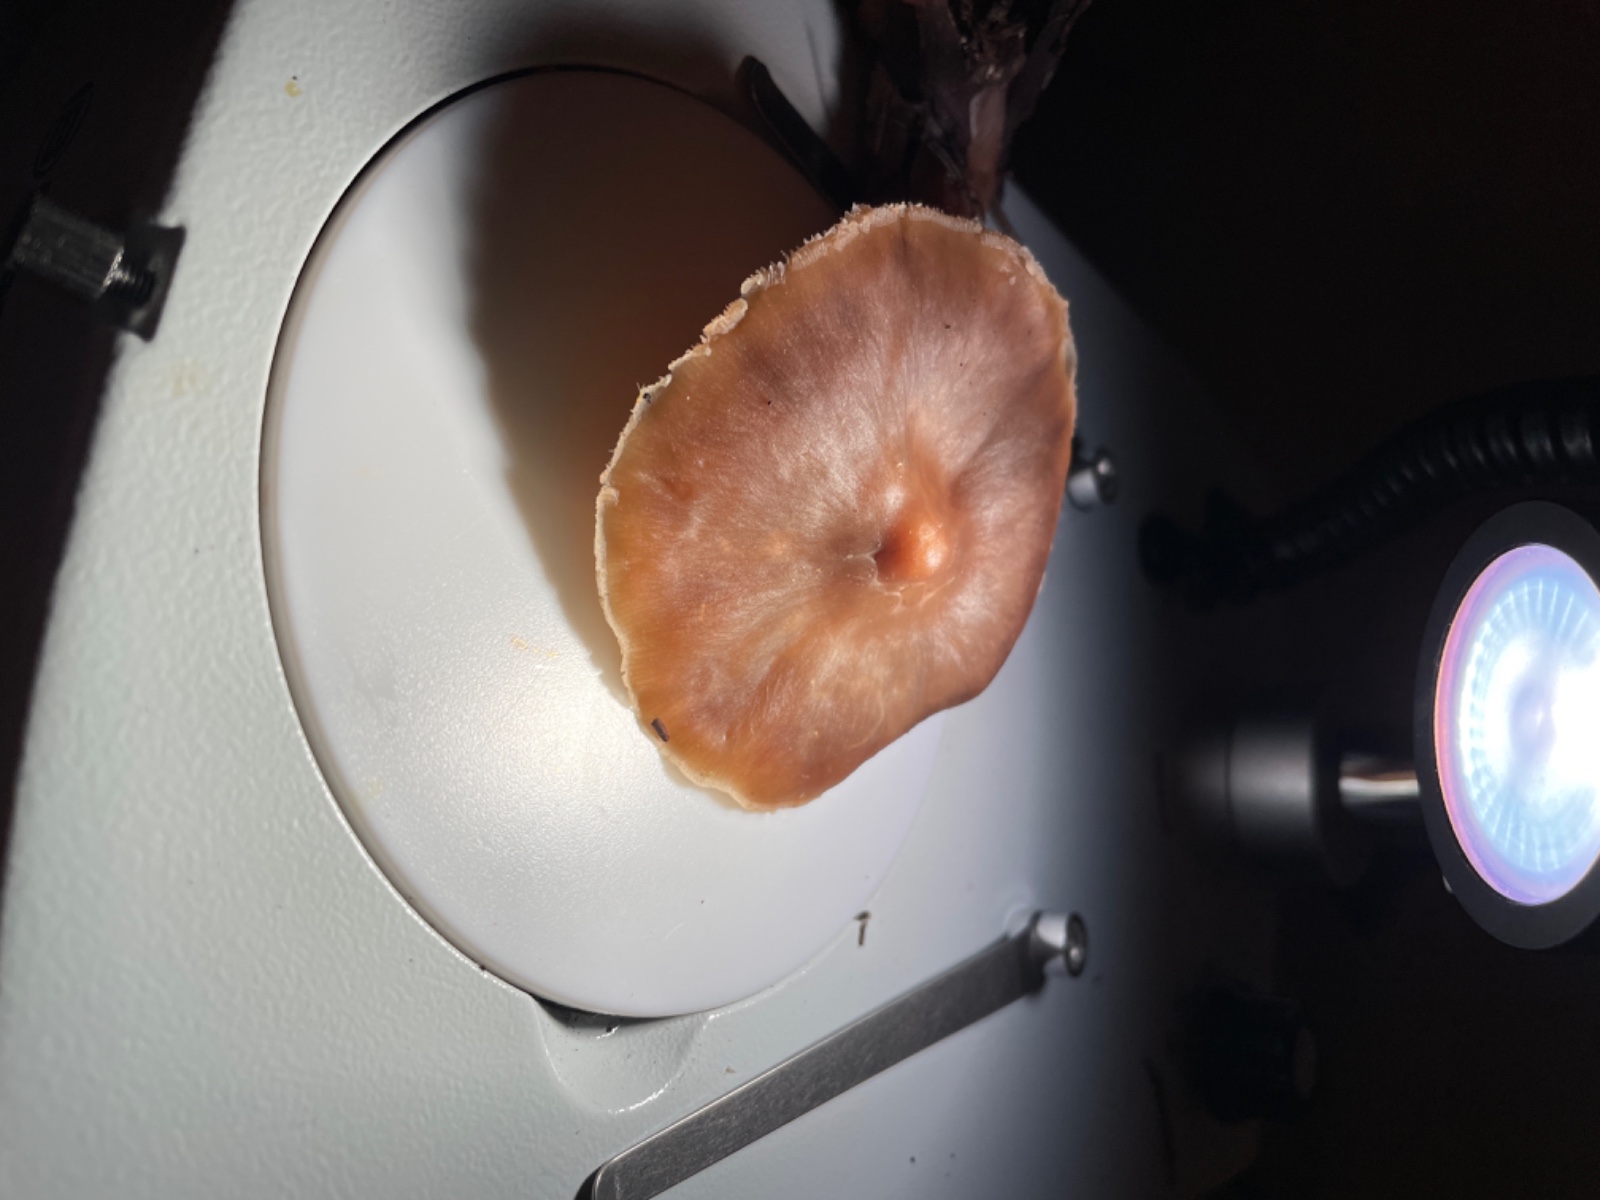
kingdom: Fungi
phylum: Basidiomycota
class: Agaricomycetes
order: Agaricales
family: Omphalotaceae
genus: Rhodocollybia
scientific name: Rhodocollybia butyracea
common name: keglestokket fladhat
